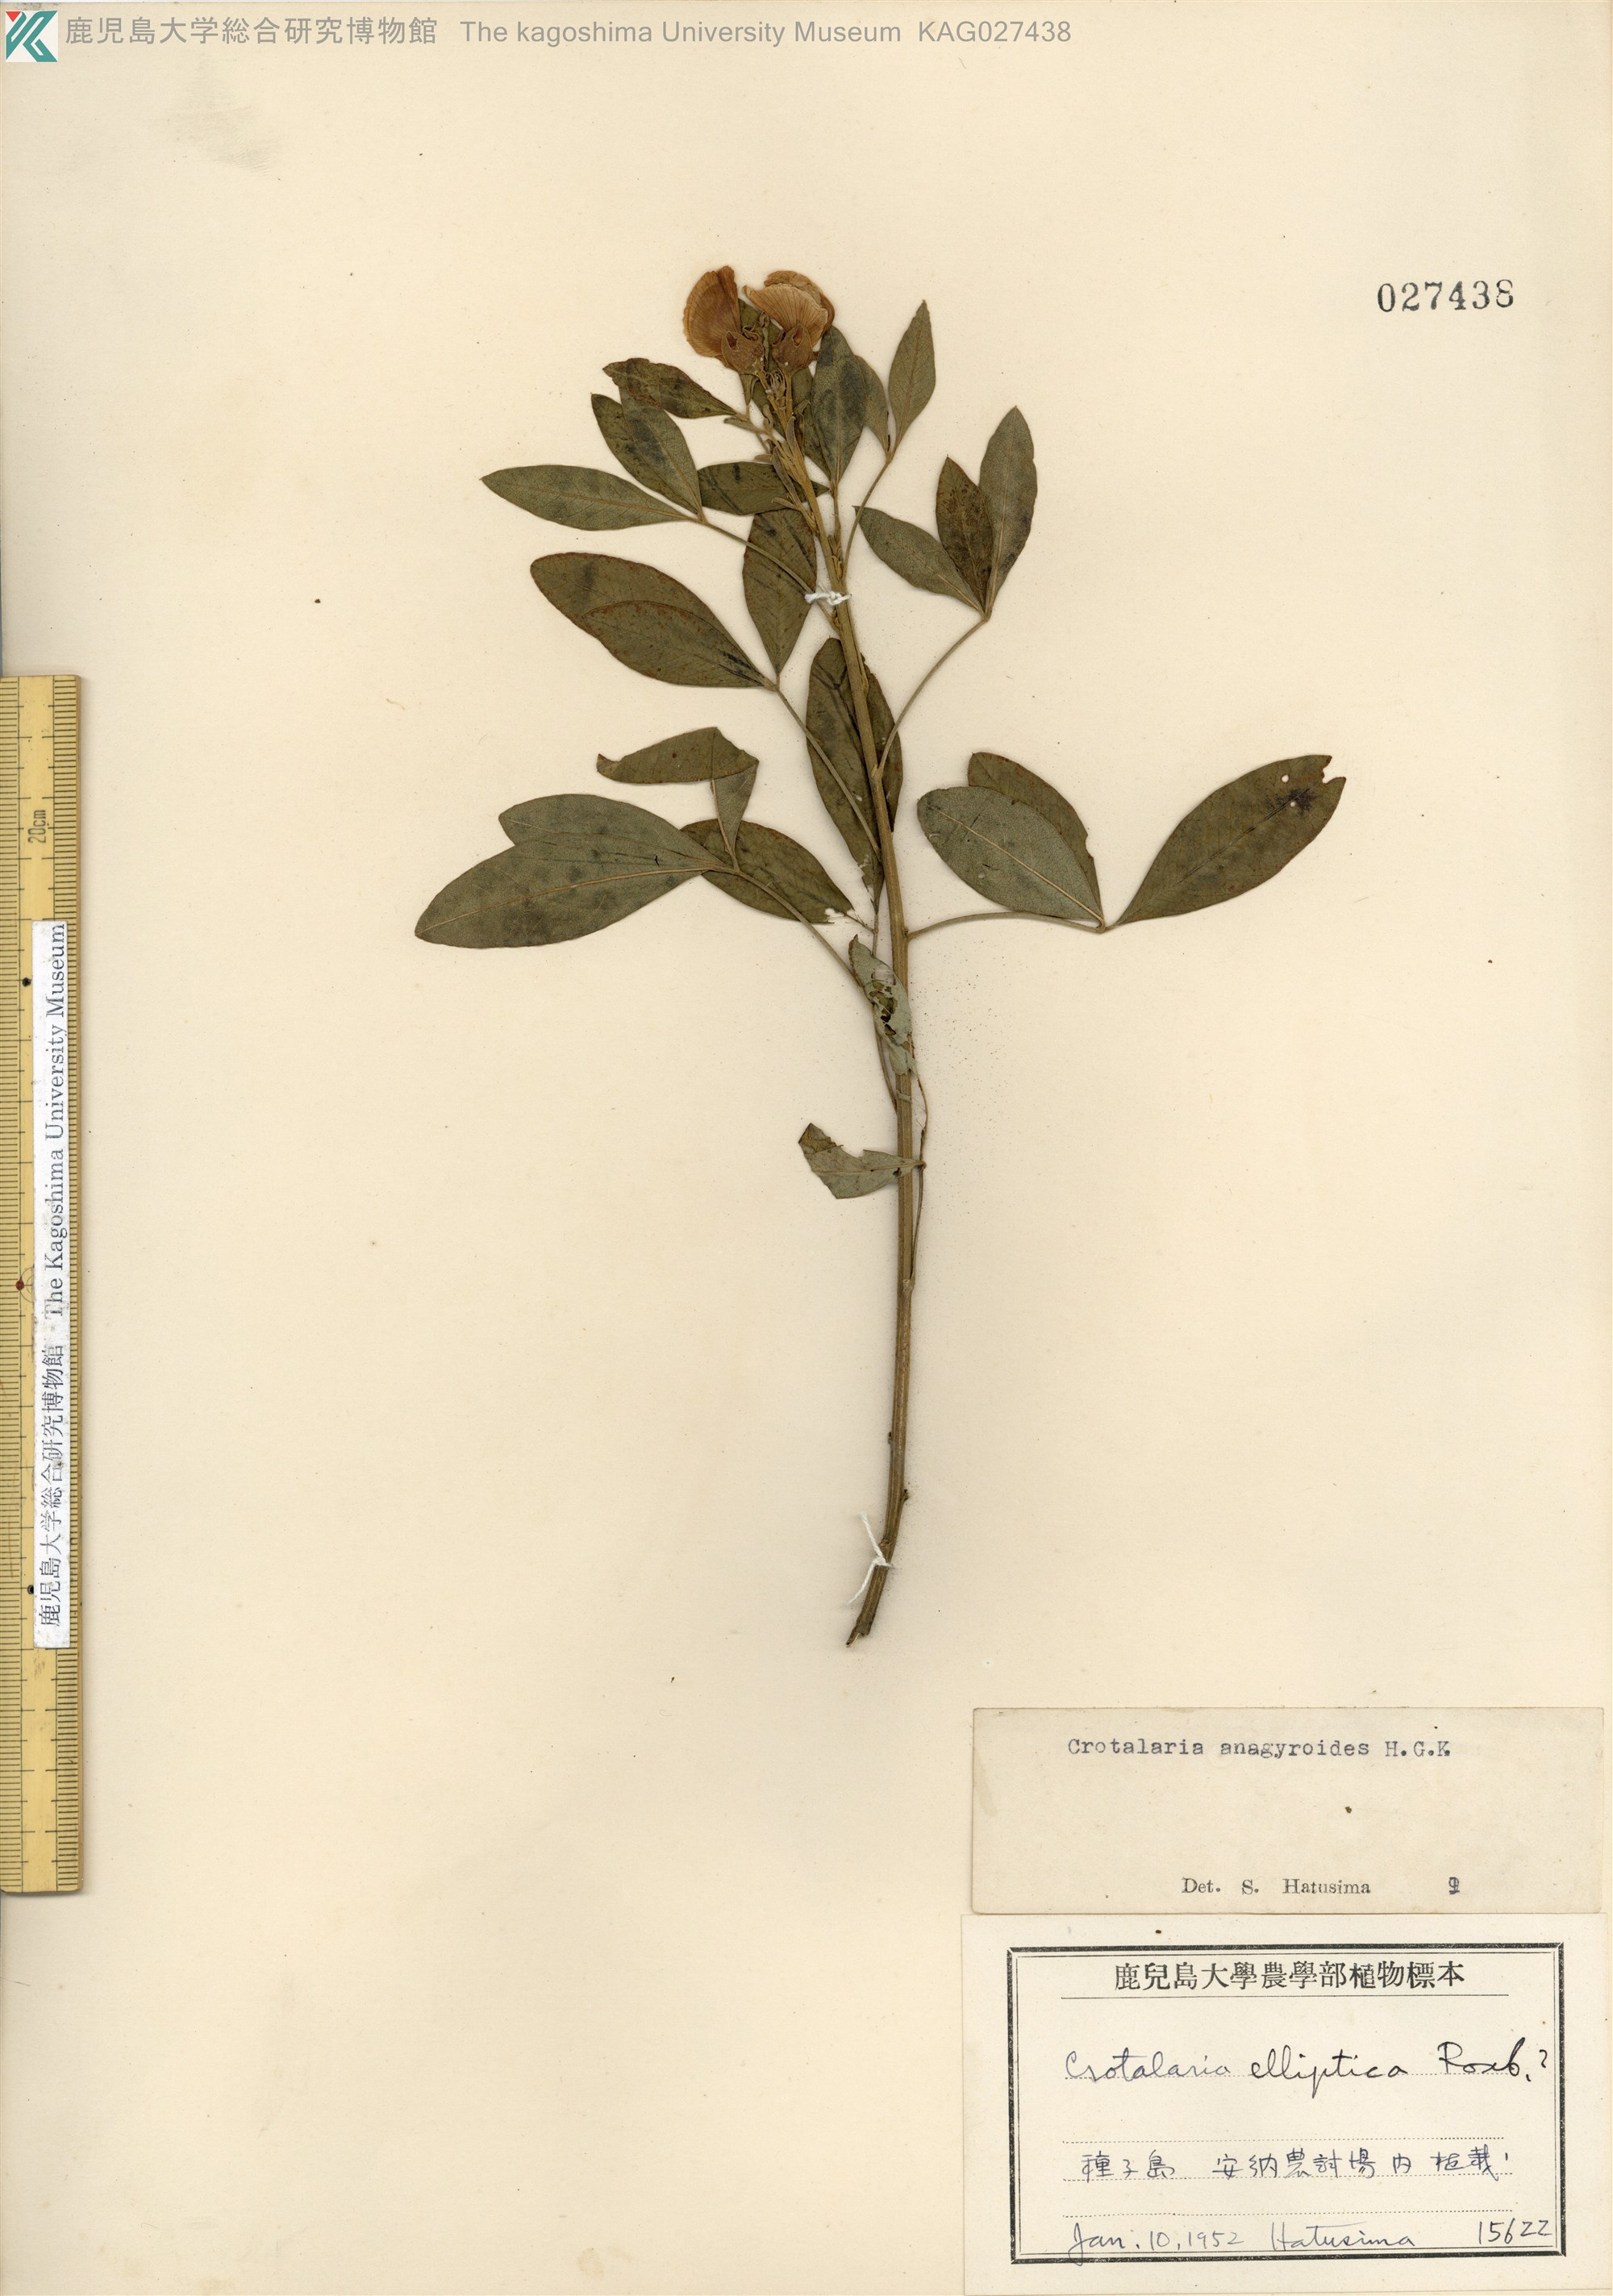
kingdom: Plantae
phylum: Tracheophyta
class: Magnoliopsida
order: Fabales
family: Fabaceae
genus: Crotalaria
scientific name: Crotalaria micans
